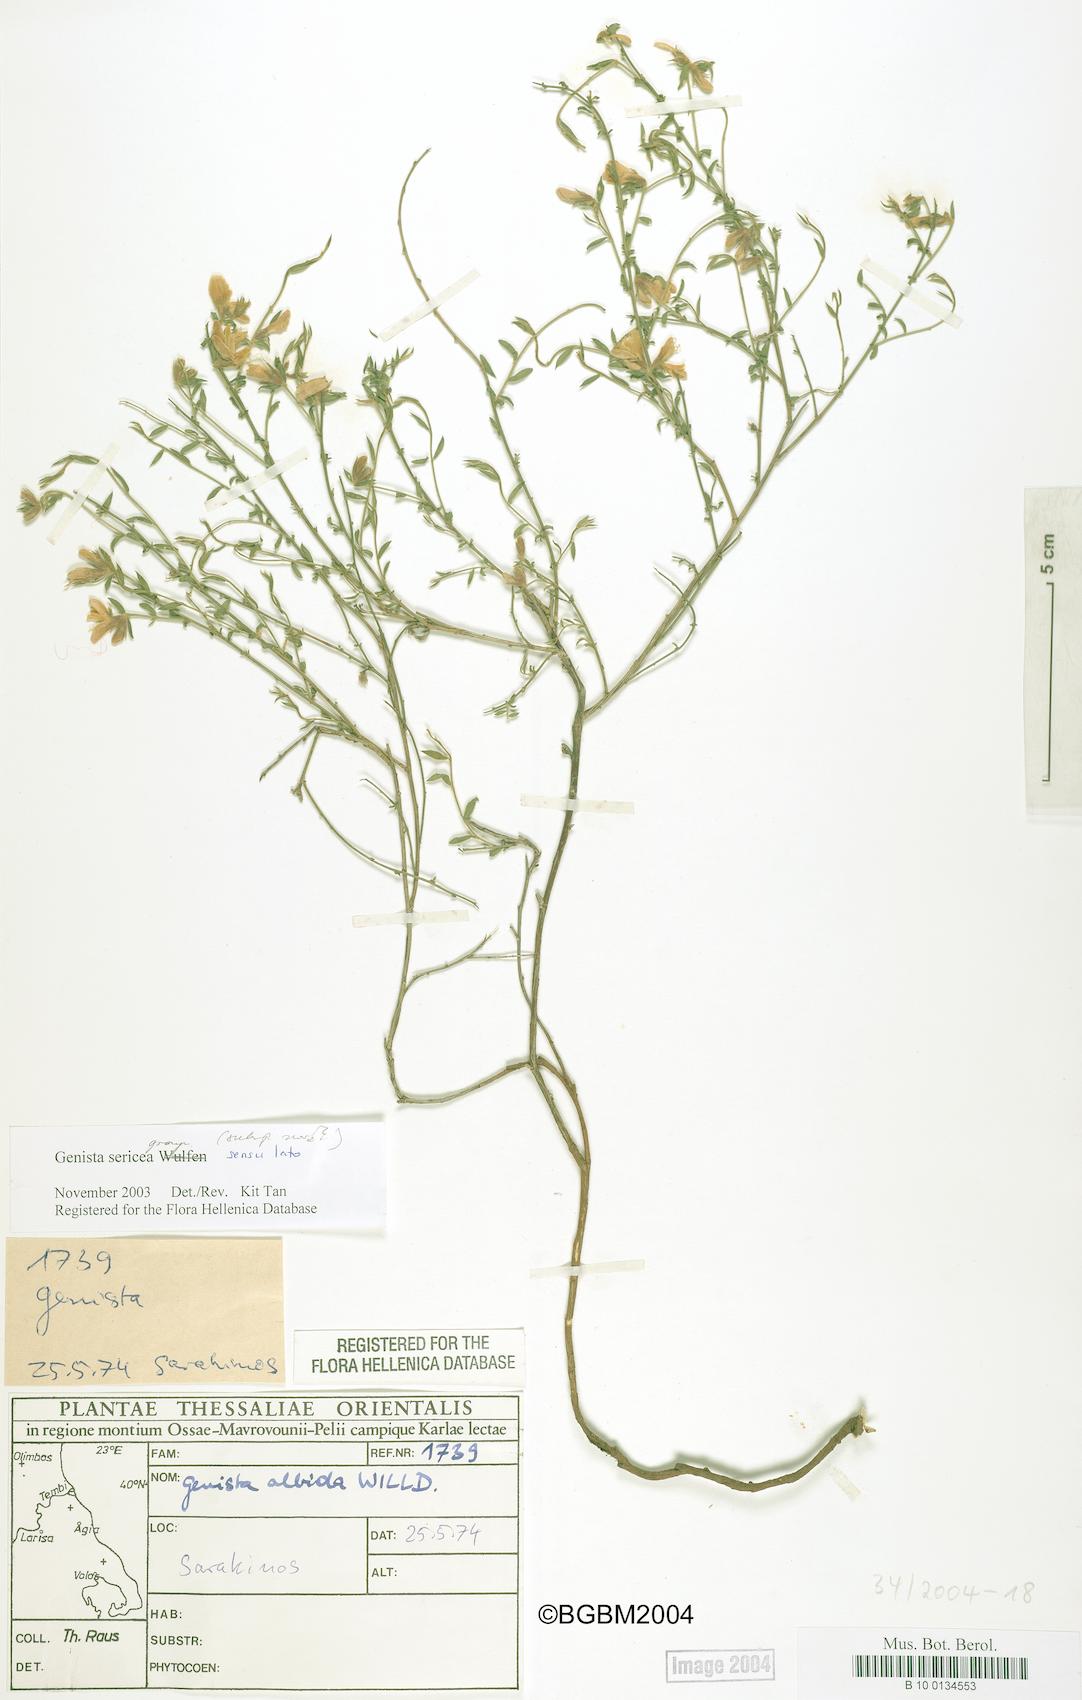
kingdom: Plantae
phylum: Tracheophyta
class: Magnoliopsida
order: Fabales
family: Fabaceae
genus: Genista
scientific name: Genista sericea
